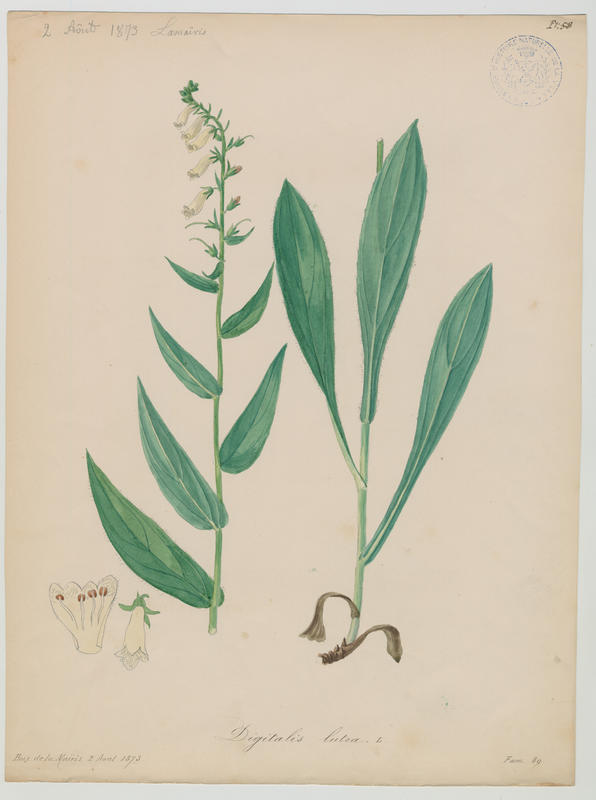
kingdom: Plantae
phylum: Tracheophyta
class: Magnoliopsida
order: Lamiales
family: Plantaginaceae
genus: Digitalis
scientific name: Digitalis lutea
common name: Straw foxglove
